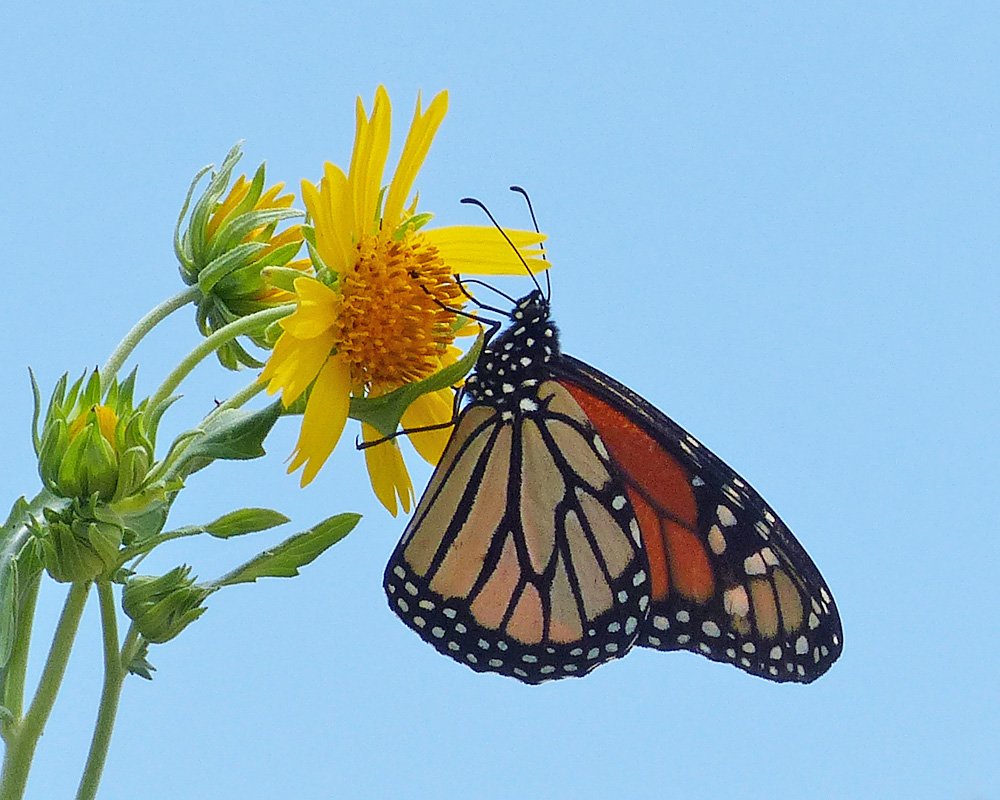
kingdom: Animalia
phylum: Arthropoda
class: Insecta
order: Lepidoptera
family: Nymphalidae
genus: Danaus
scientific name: Danaus plexippus
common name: Monarch
